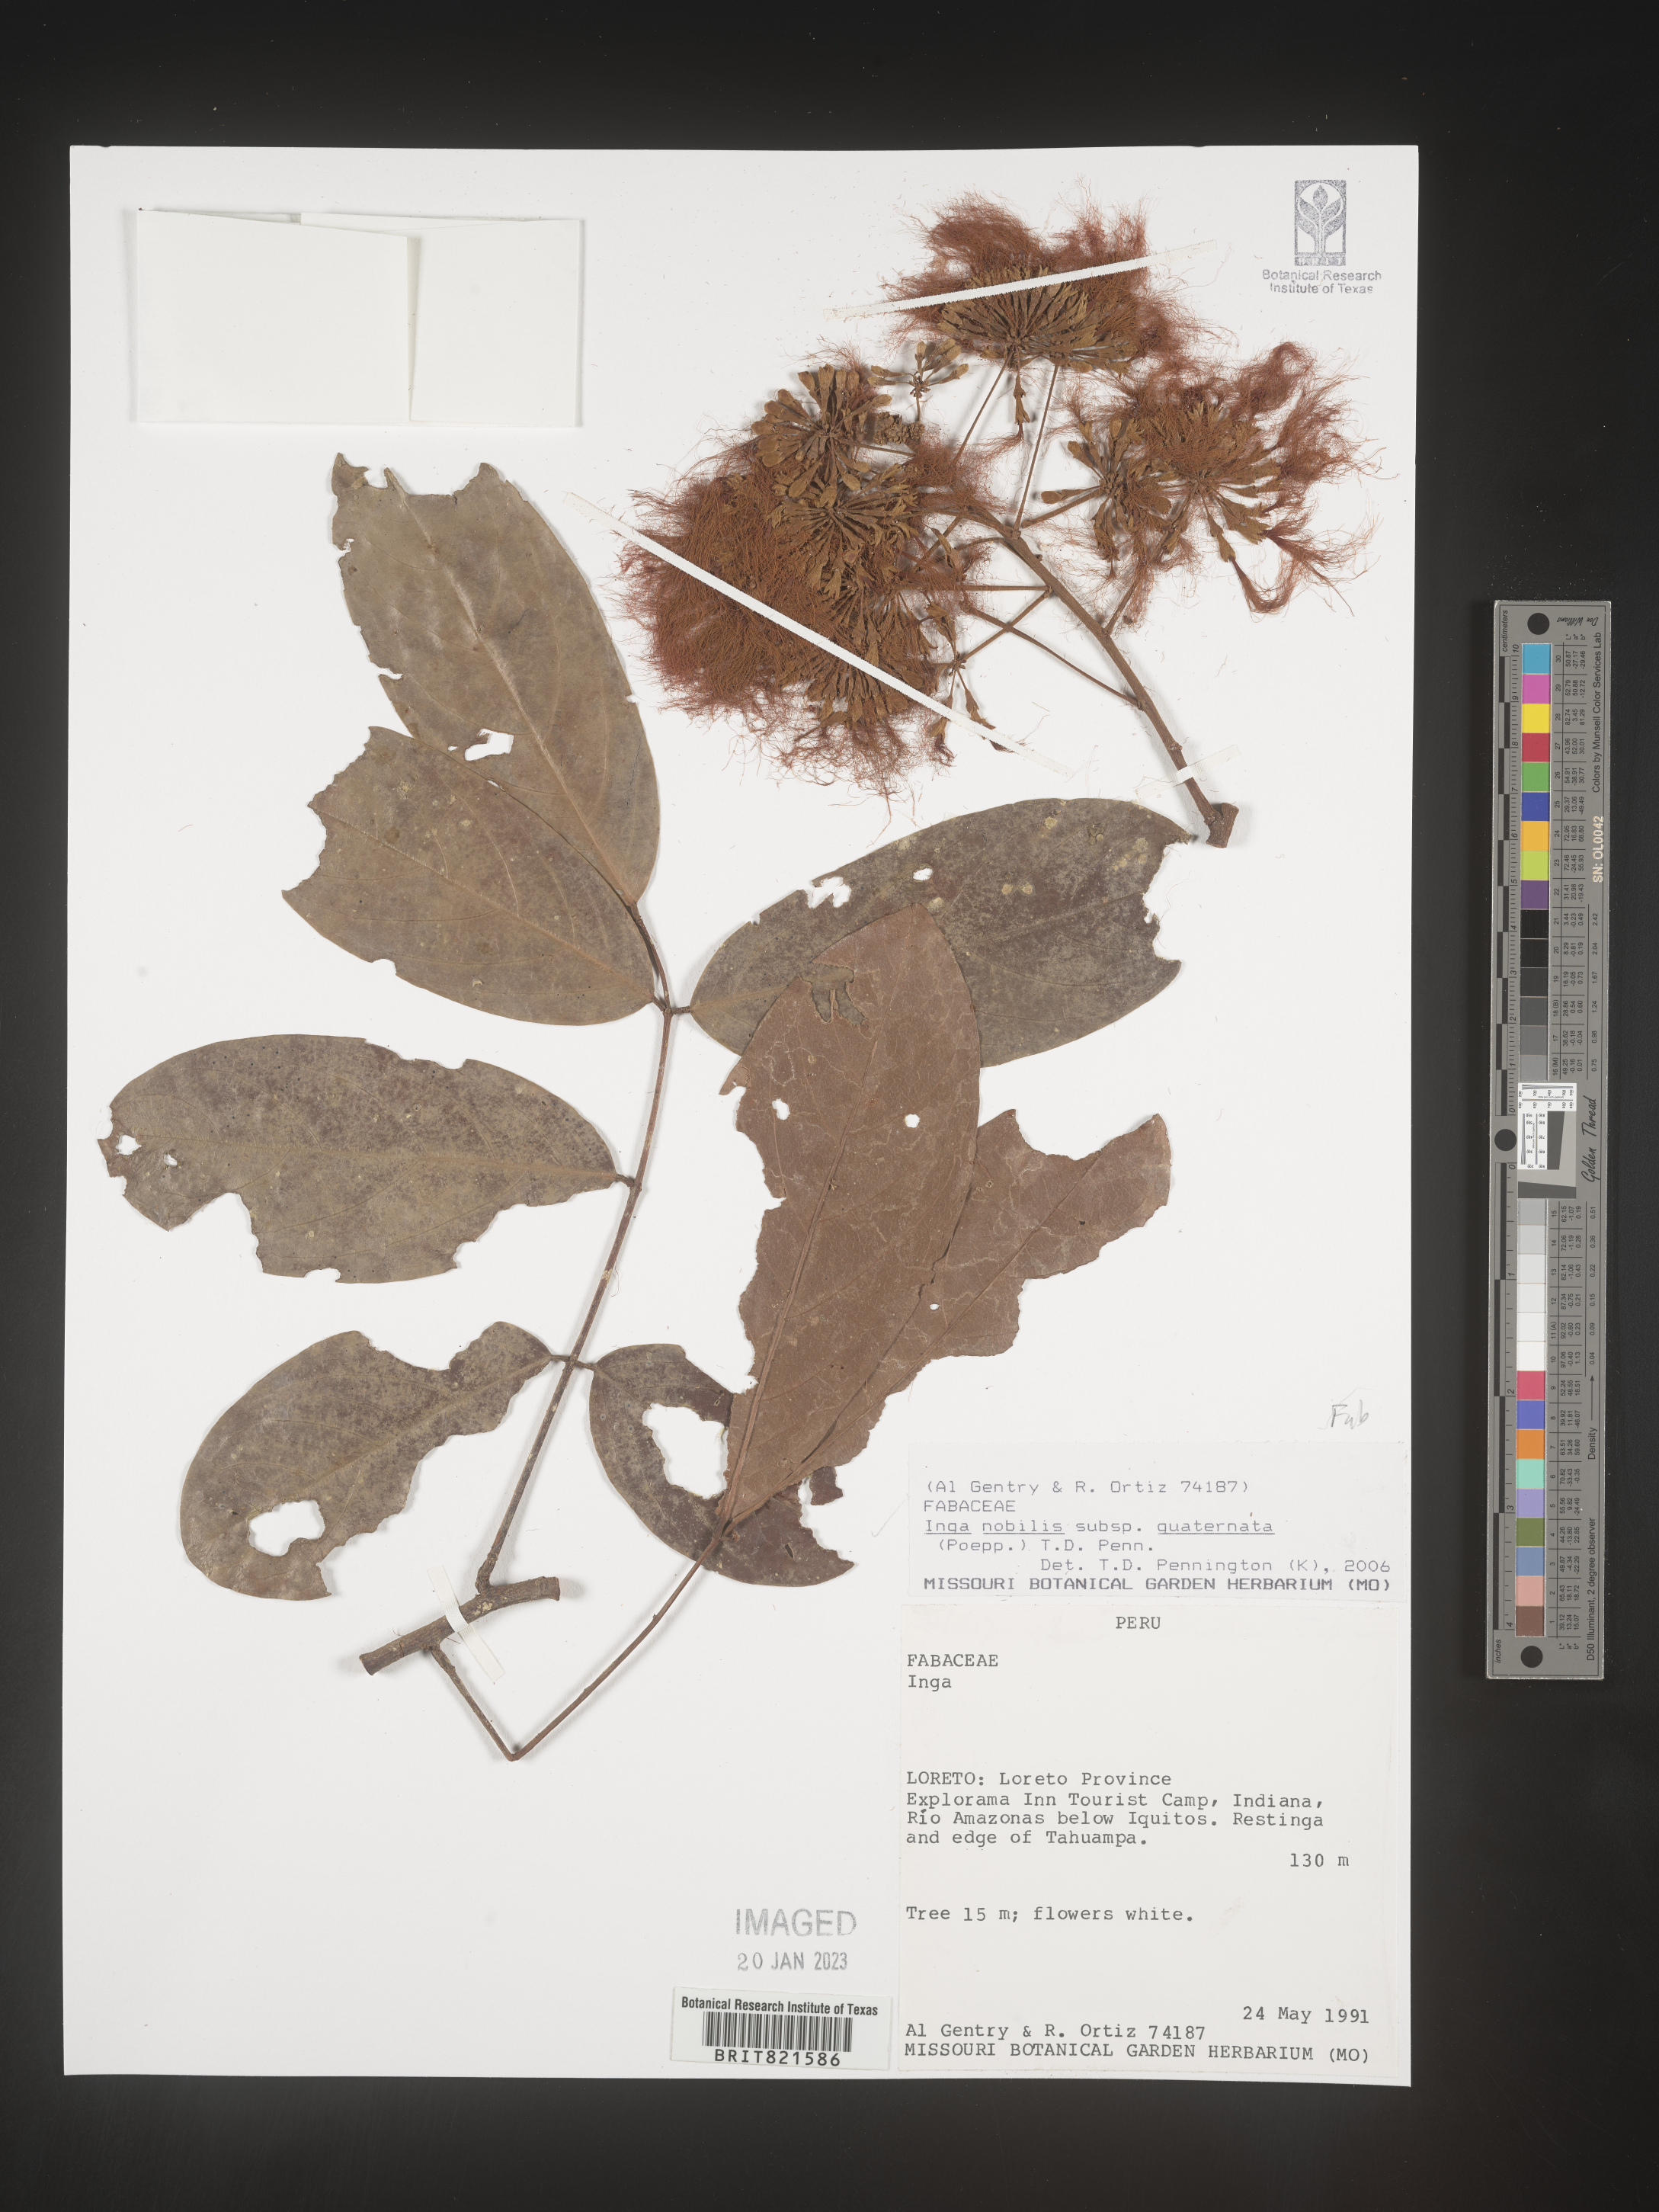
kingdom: Plantae
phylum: Tracheophyta
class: Magnoliopsida
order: Fabales
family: Fabaceae
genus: Inga
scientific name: Inga
